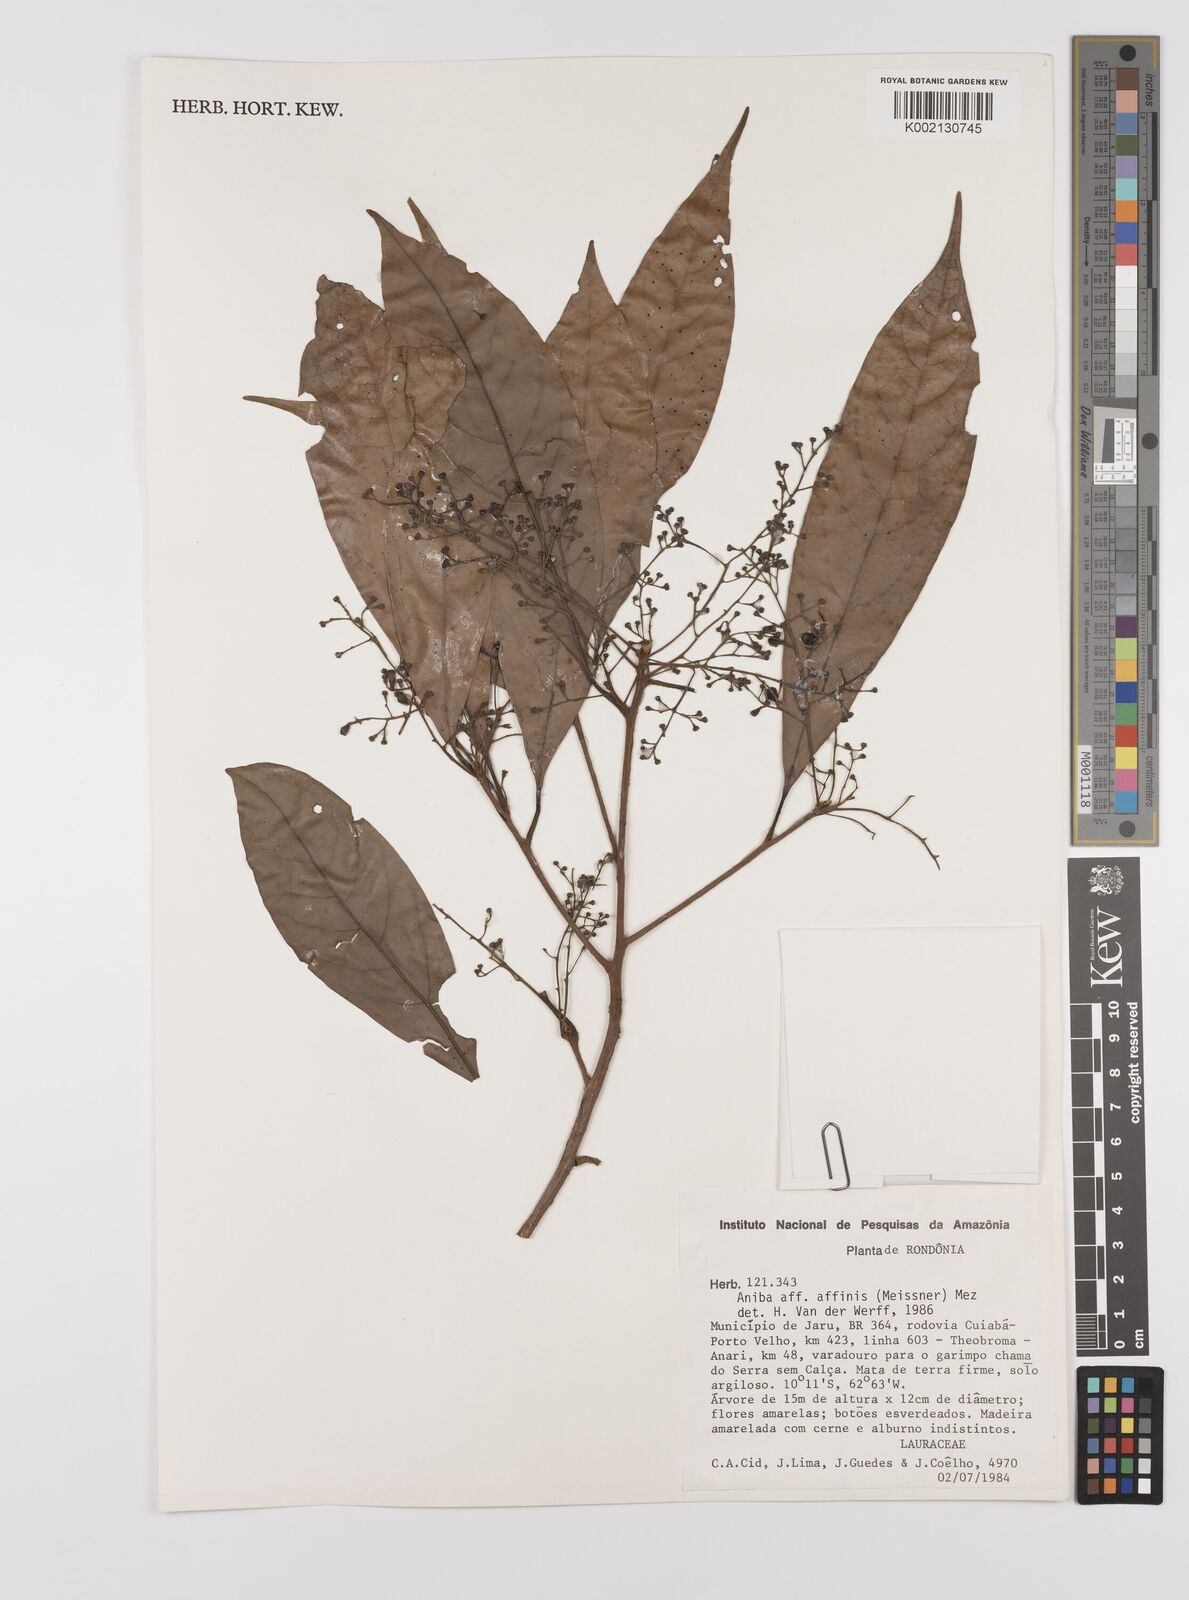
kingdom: Plantae
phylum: Tracheophyta
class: Magnoliopsida
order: Laurales
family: Lauraceae
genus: Aniba
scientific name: Aniba affinis
